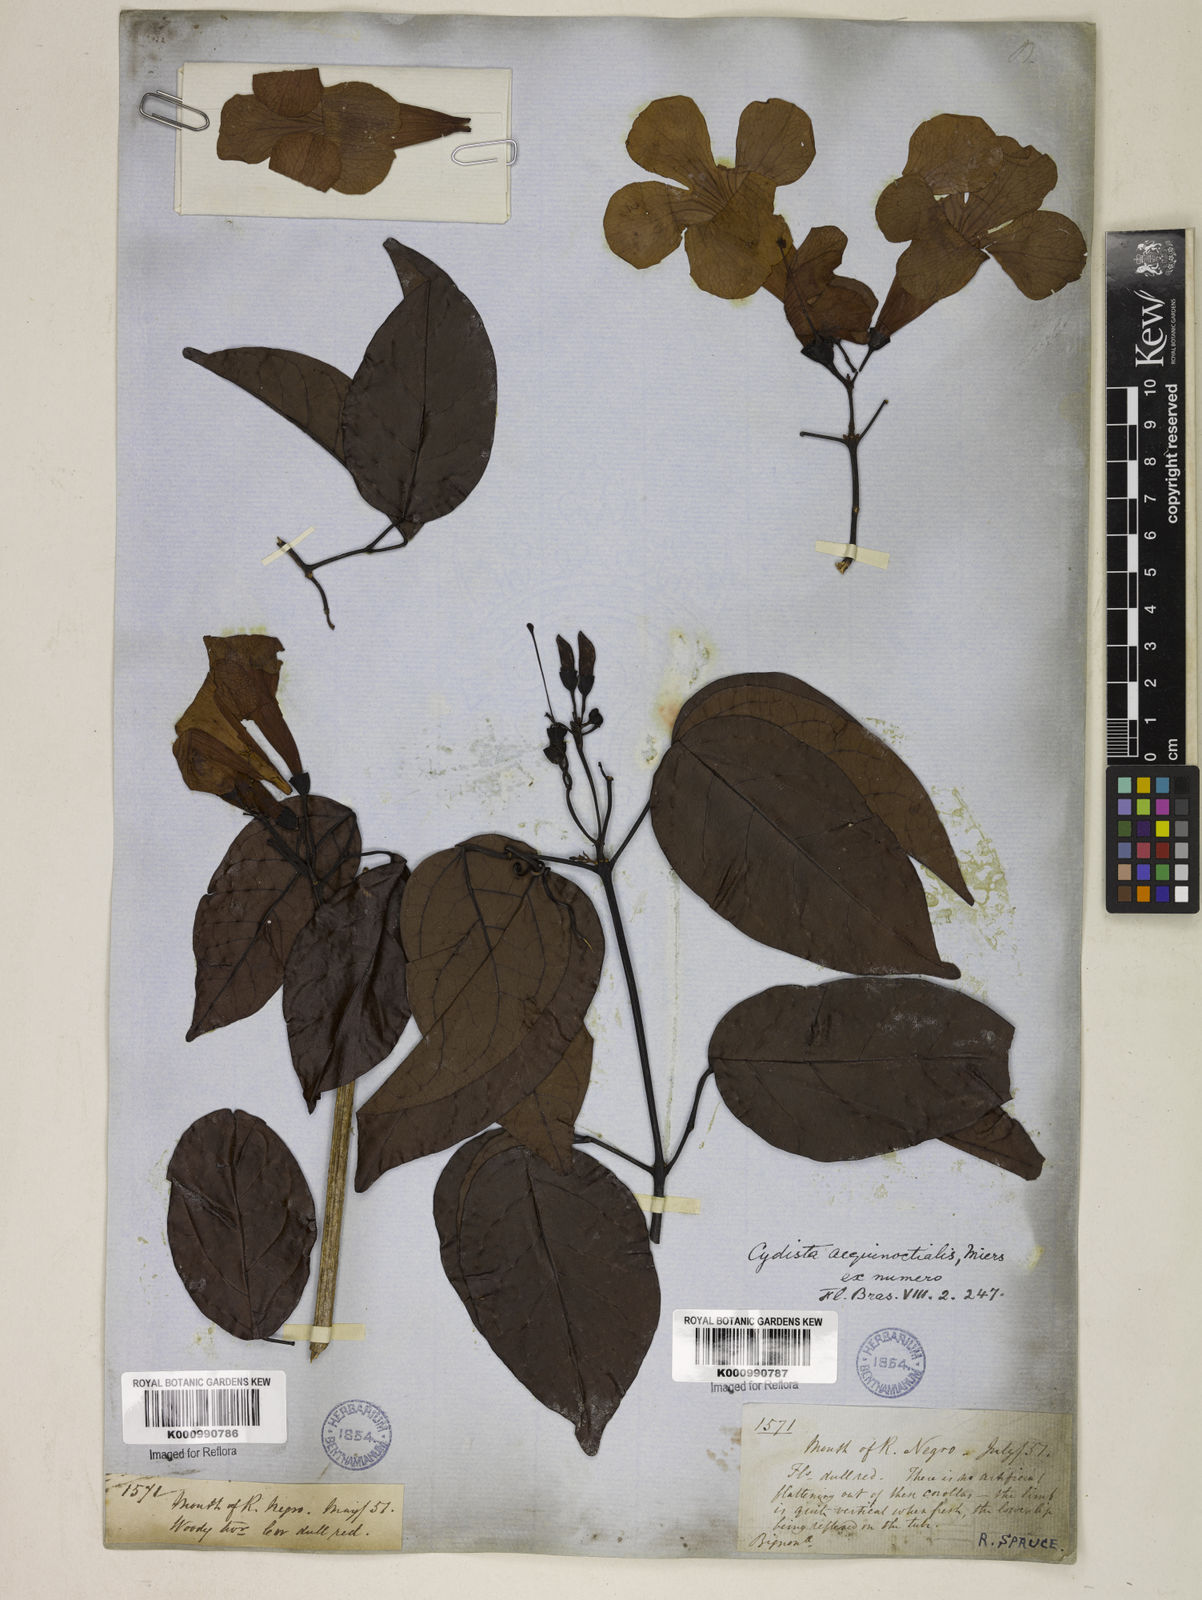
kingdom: Plantae
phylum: Tracheophyta
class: Magnoliopsida
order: Lamiales
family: Bignoniaceae
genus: Bignonia
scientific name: Bignonia aequinoctialis
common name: Garlicvine
